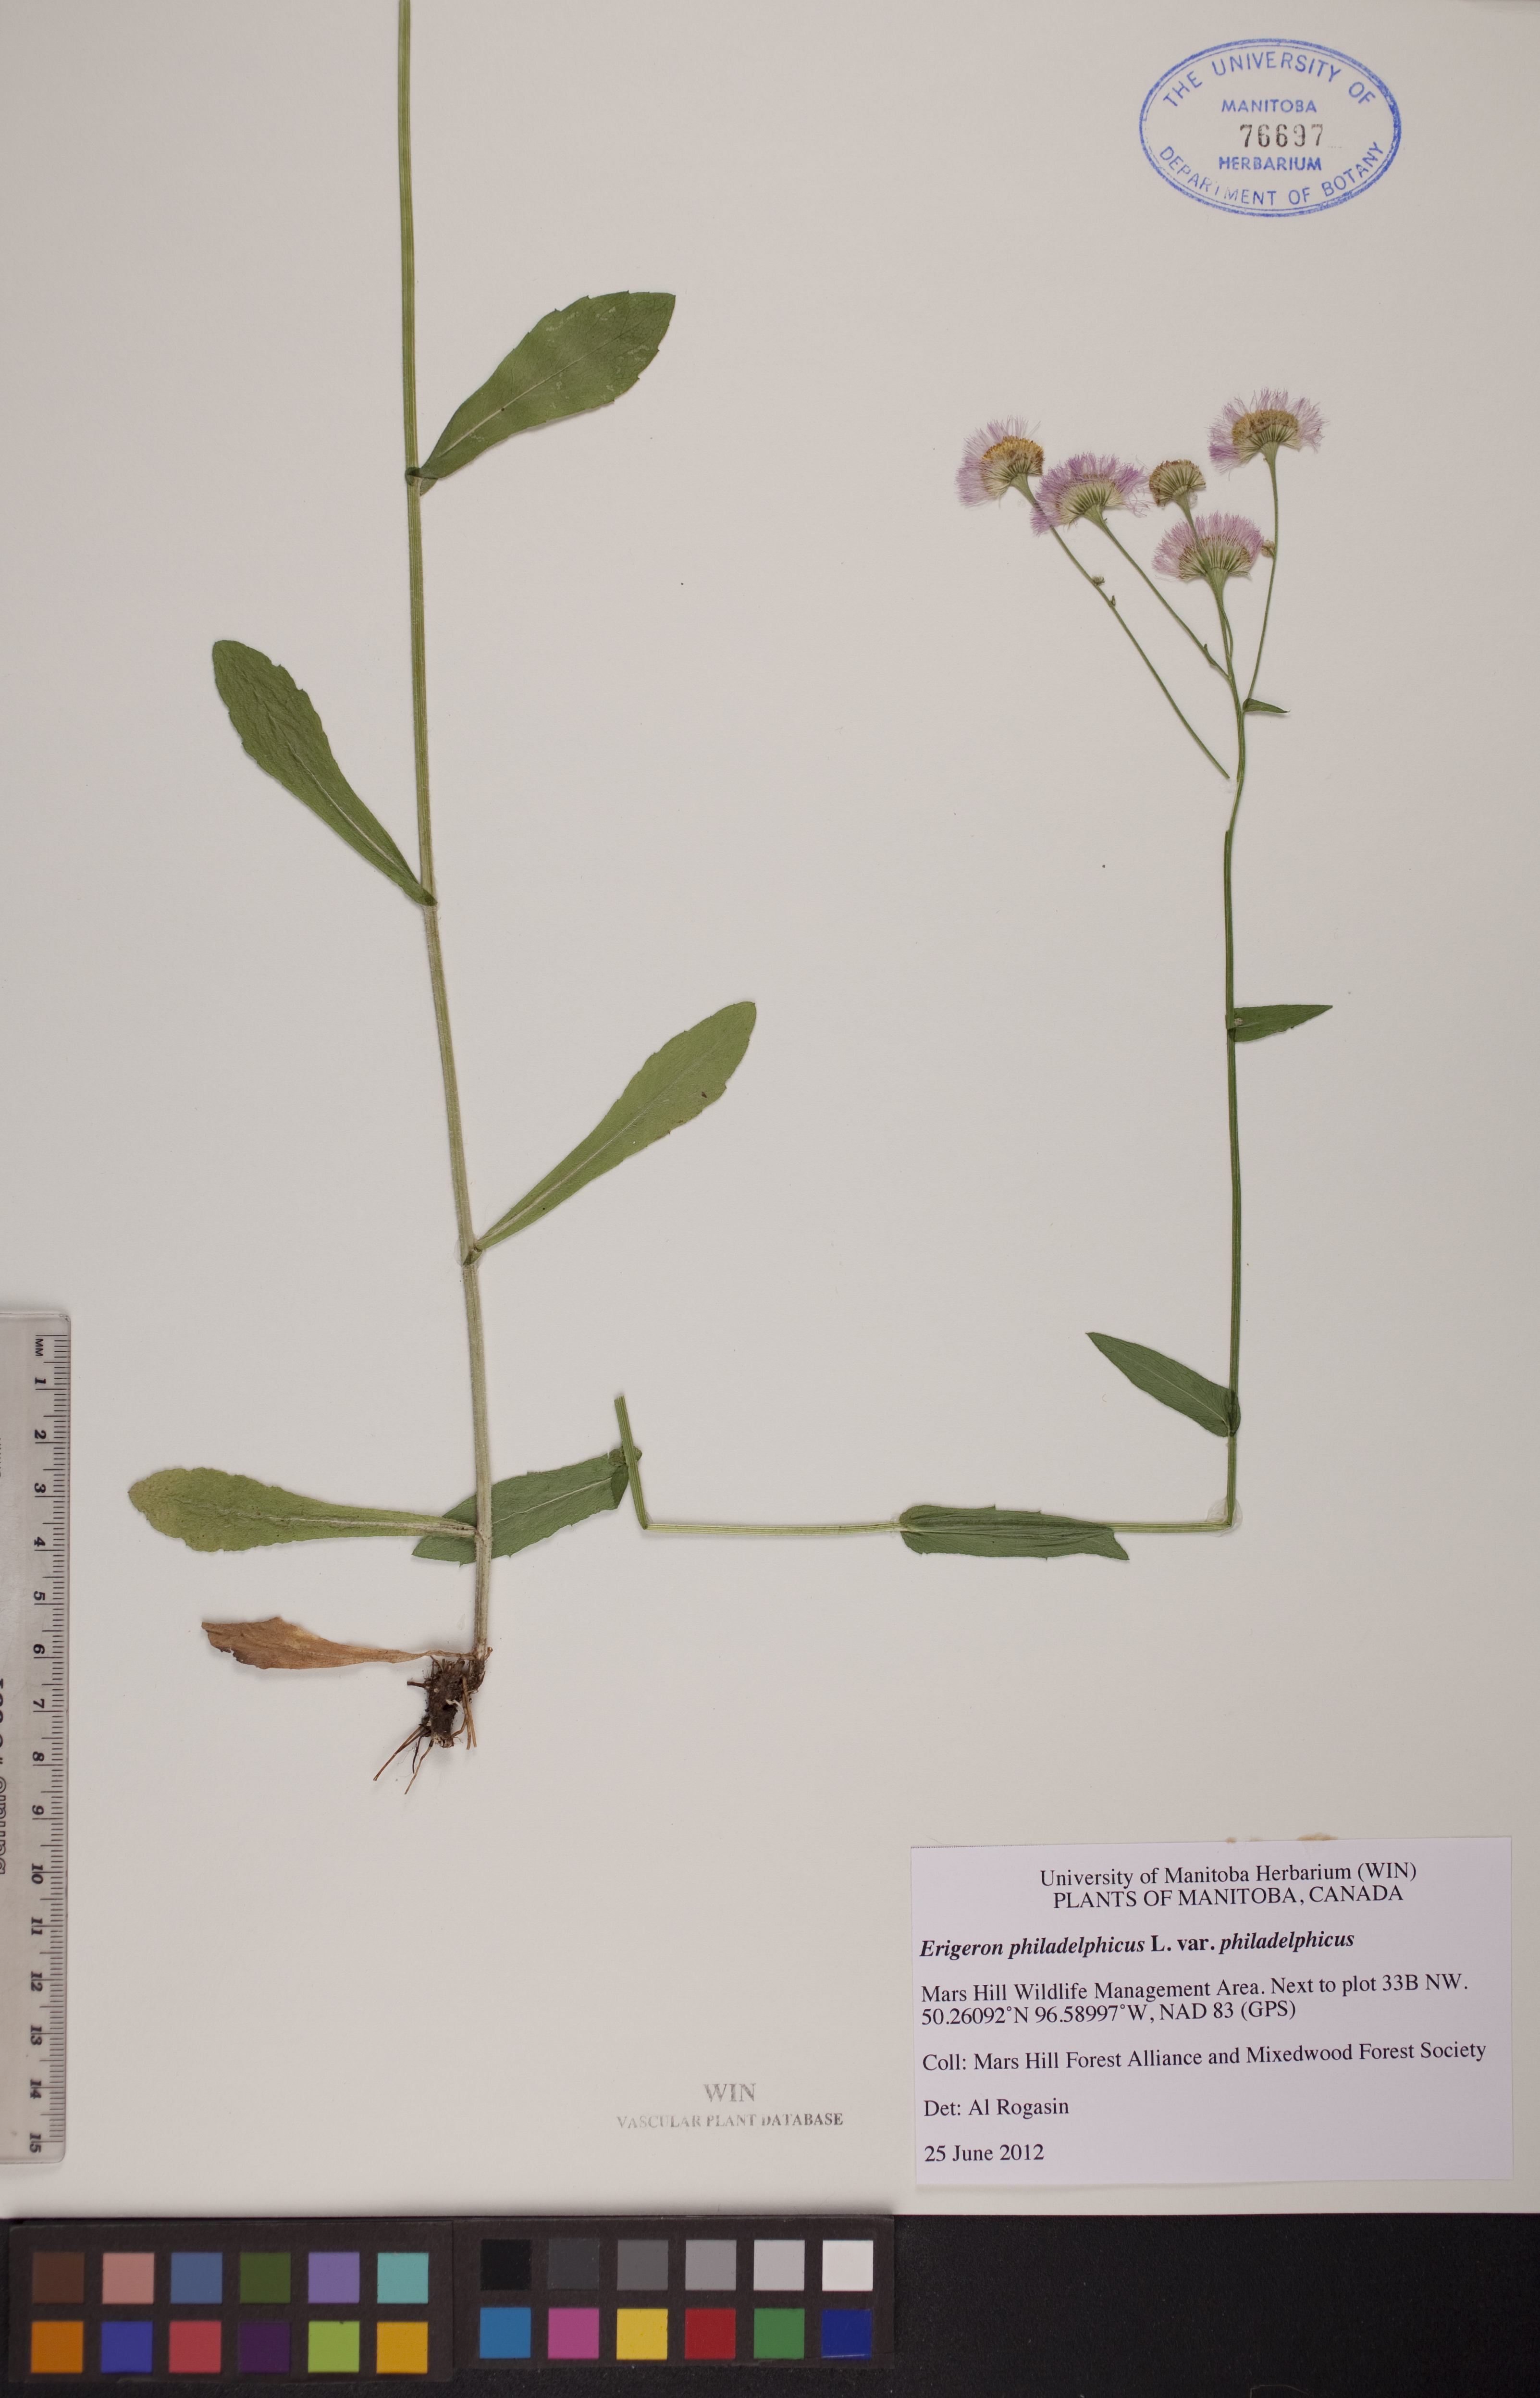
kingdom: Plantae
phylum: Tracheophyta
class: Magnoliopsida
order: Asterales
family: Asteraceae
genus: Erigeron
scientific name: Erigeron philadelphicus
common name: Robin's-plantain
